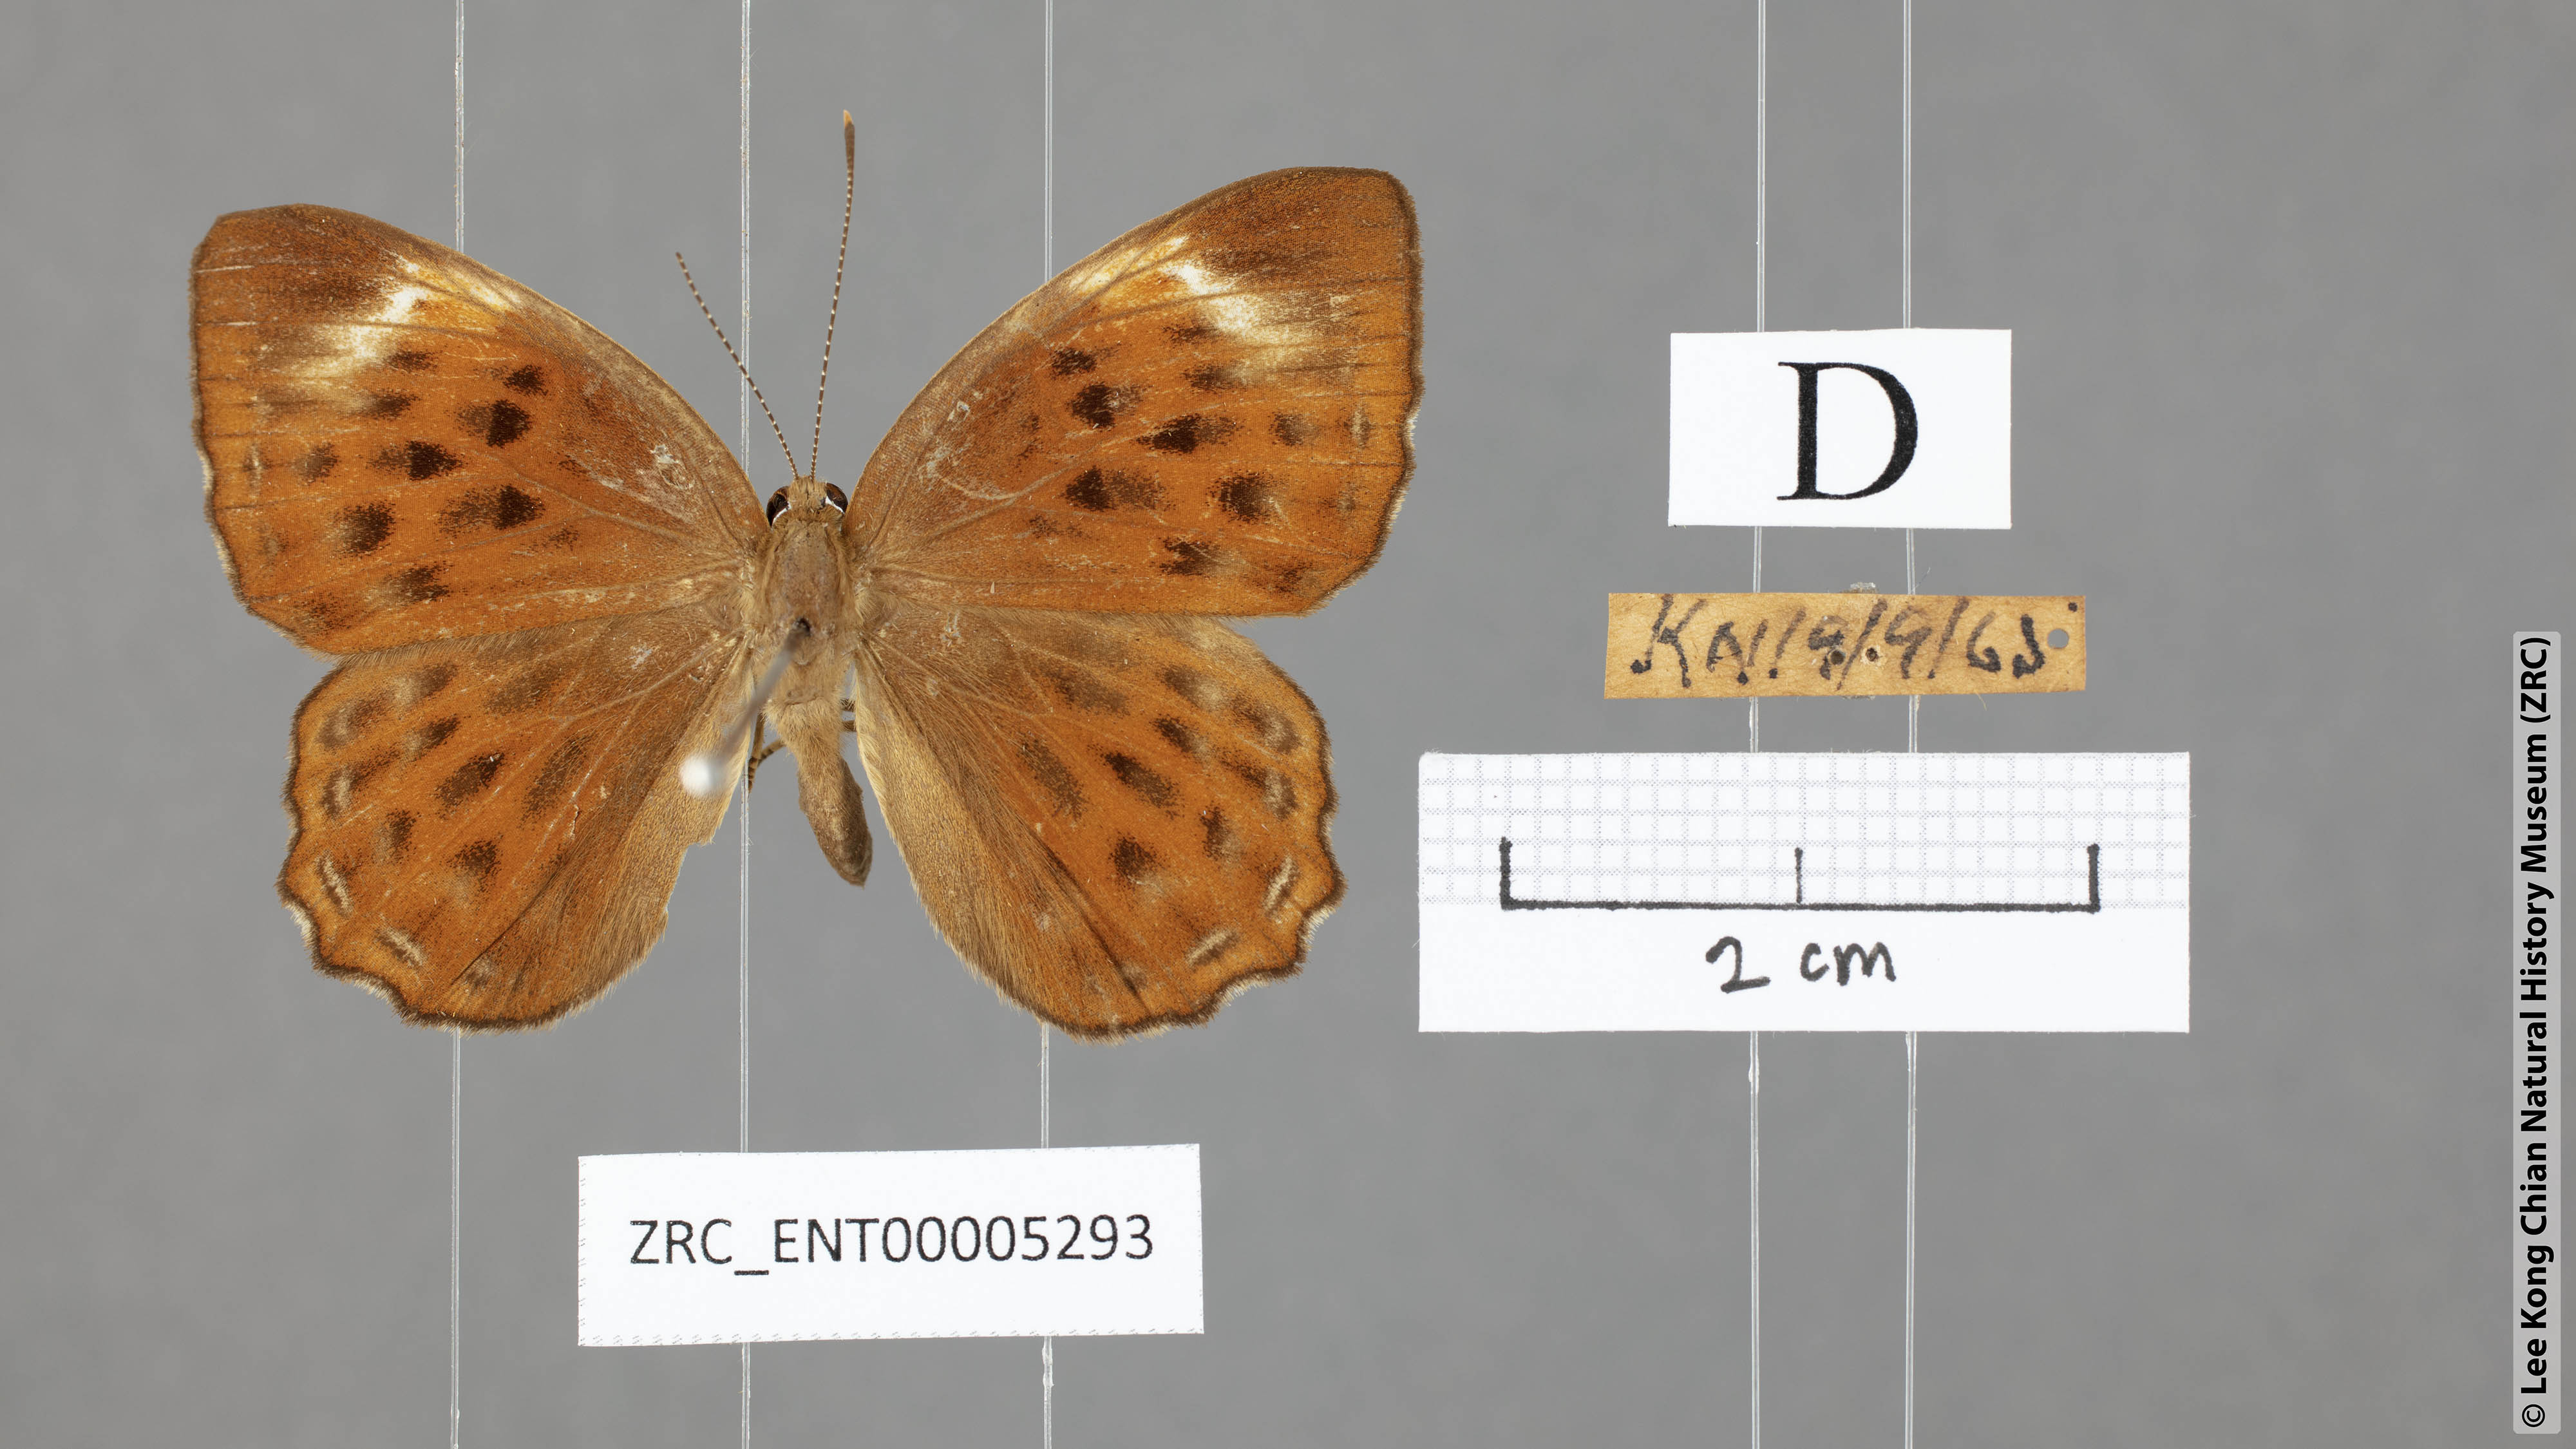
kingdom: Animalia
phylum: Arthropoda
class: Insecta
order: Lepidoptera
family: Riodinidae
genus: Laxita
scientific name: Laxita thuisto
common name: Lesser harlequin
